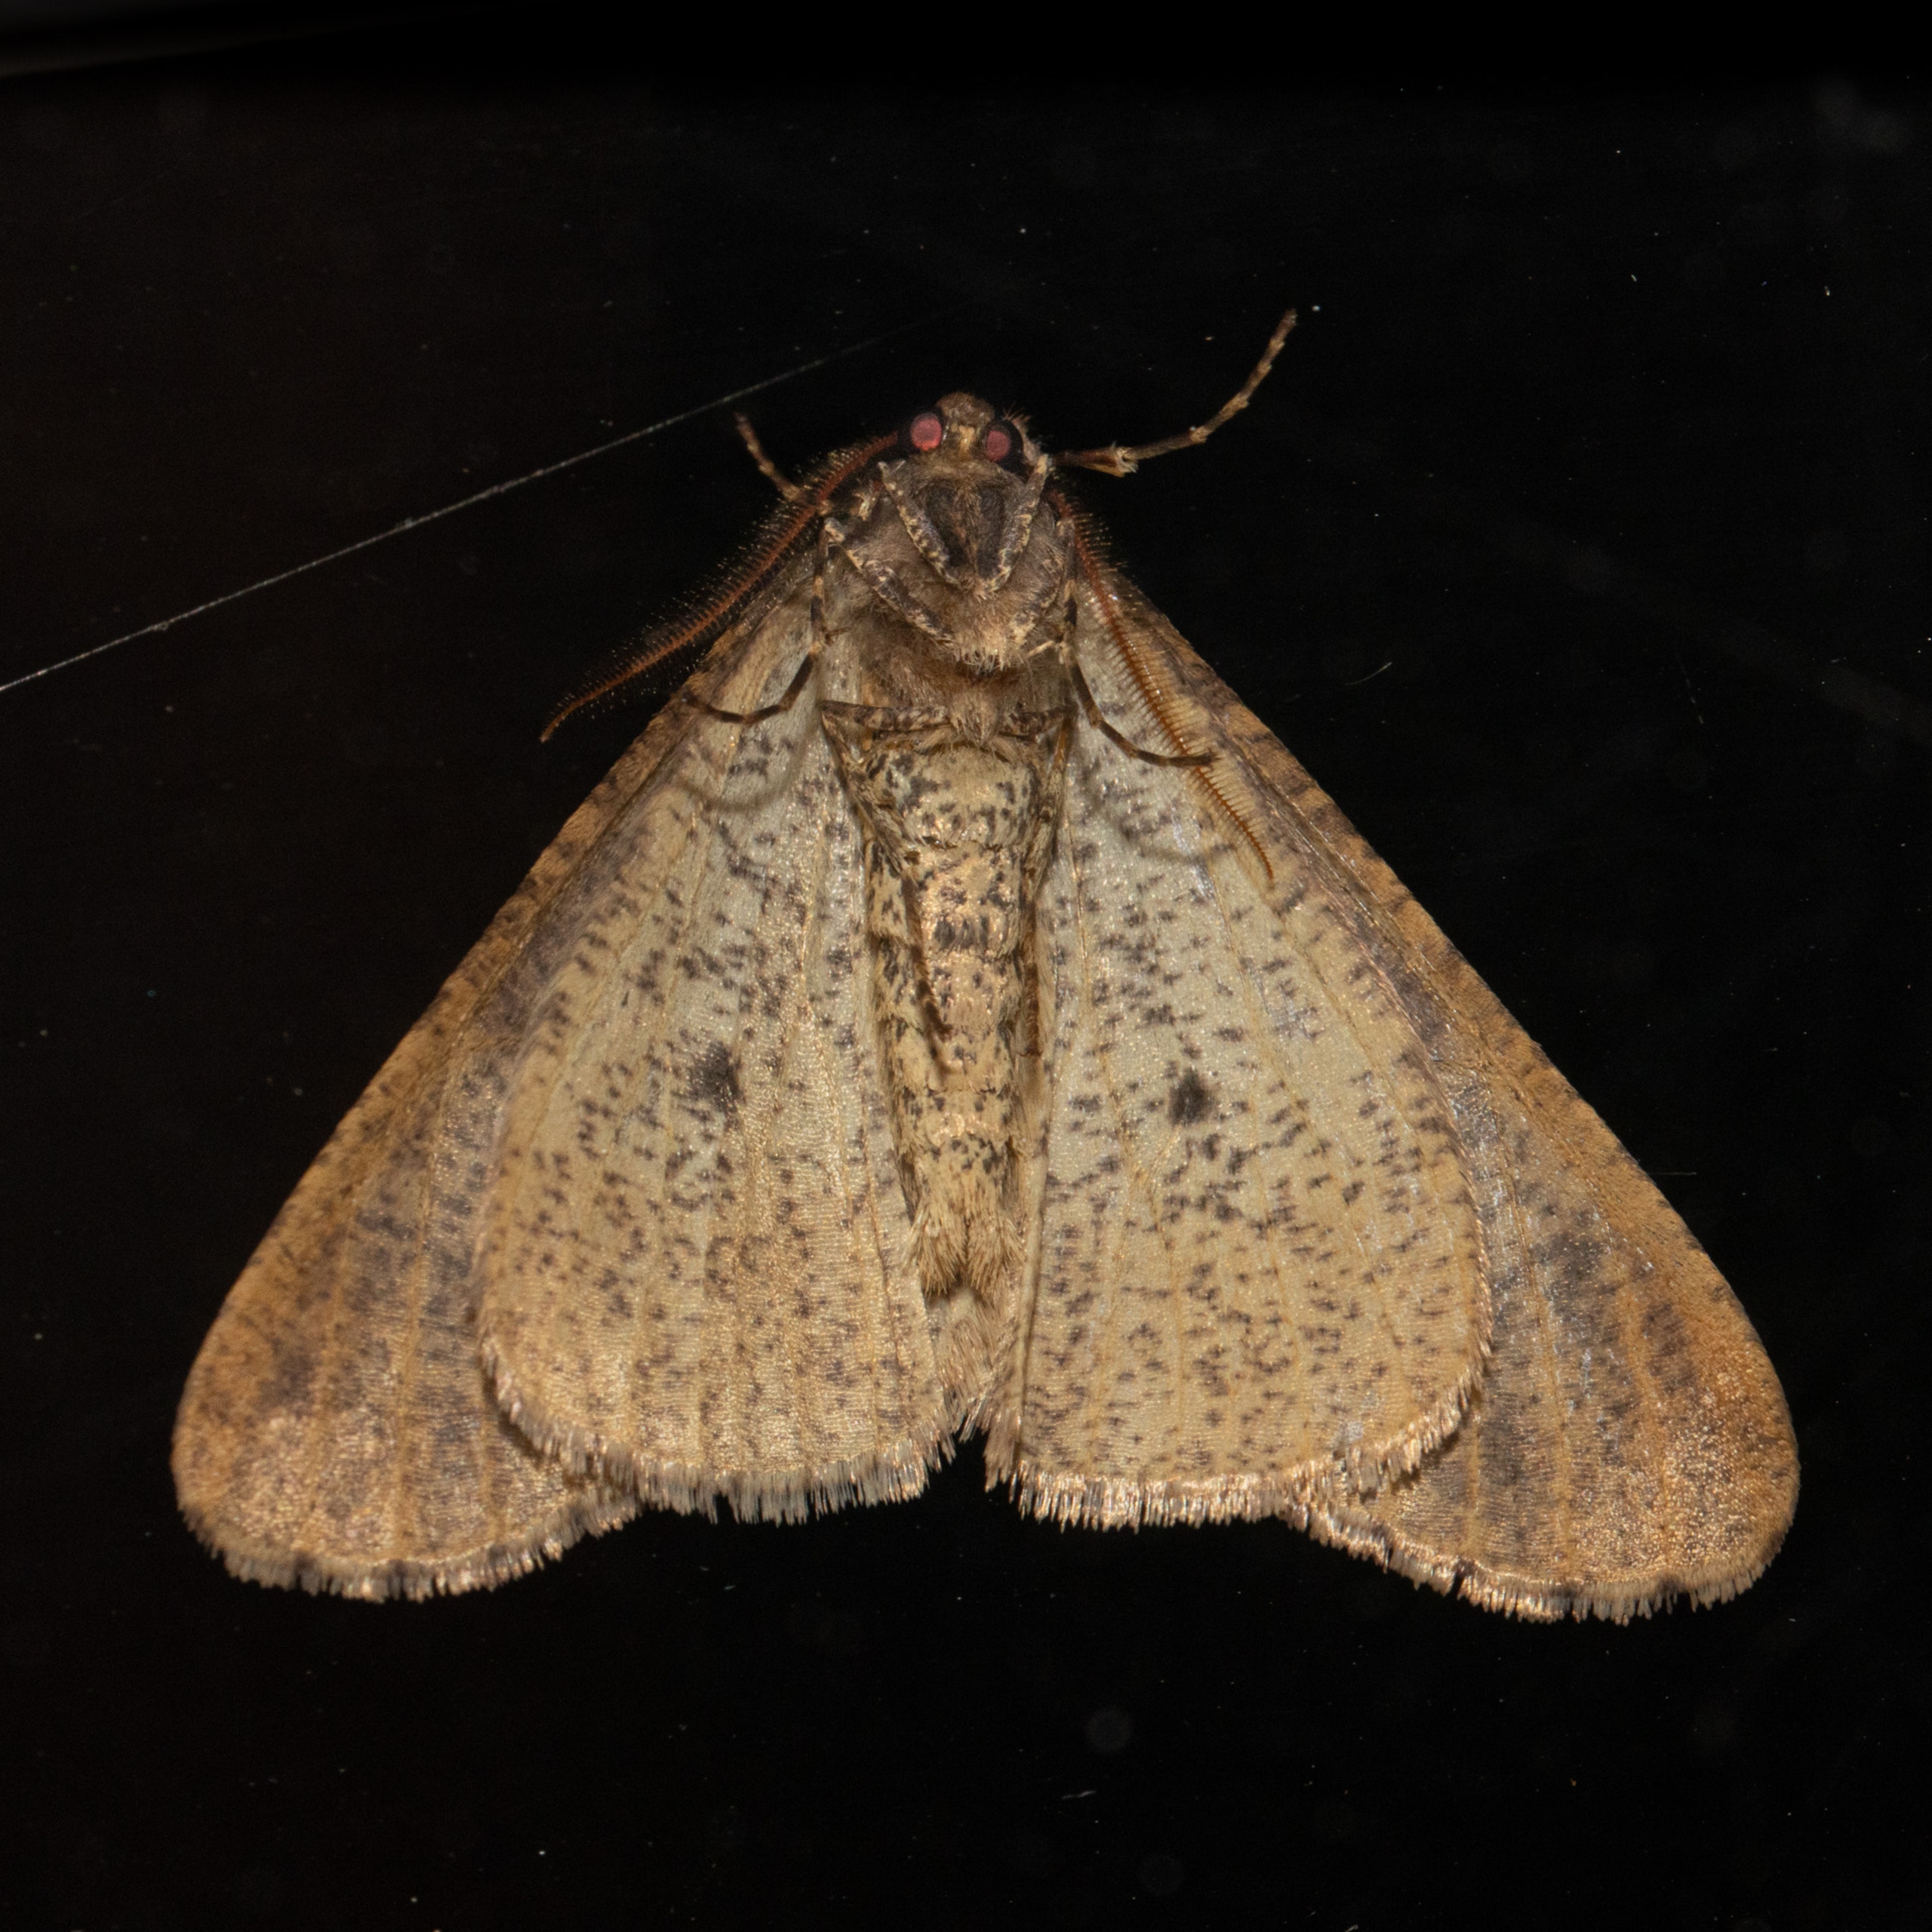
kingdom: Animalia
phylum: Arthropoda
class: Insecta
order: Lepidoptera
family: Geometridae
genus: Erannis
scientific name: Erannis defoliaria
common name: Stor frostmåler
